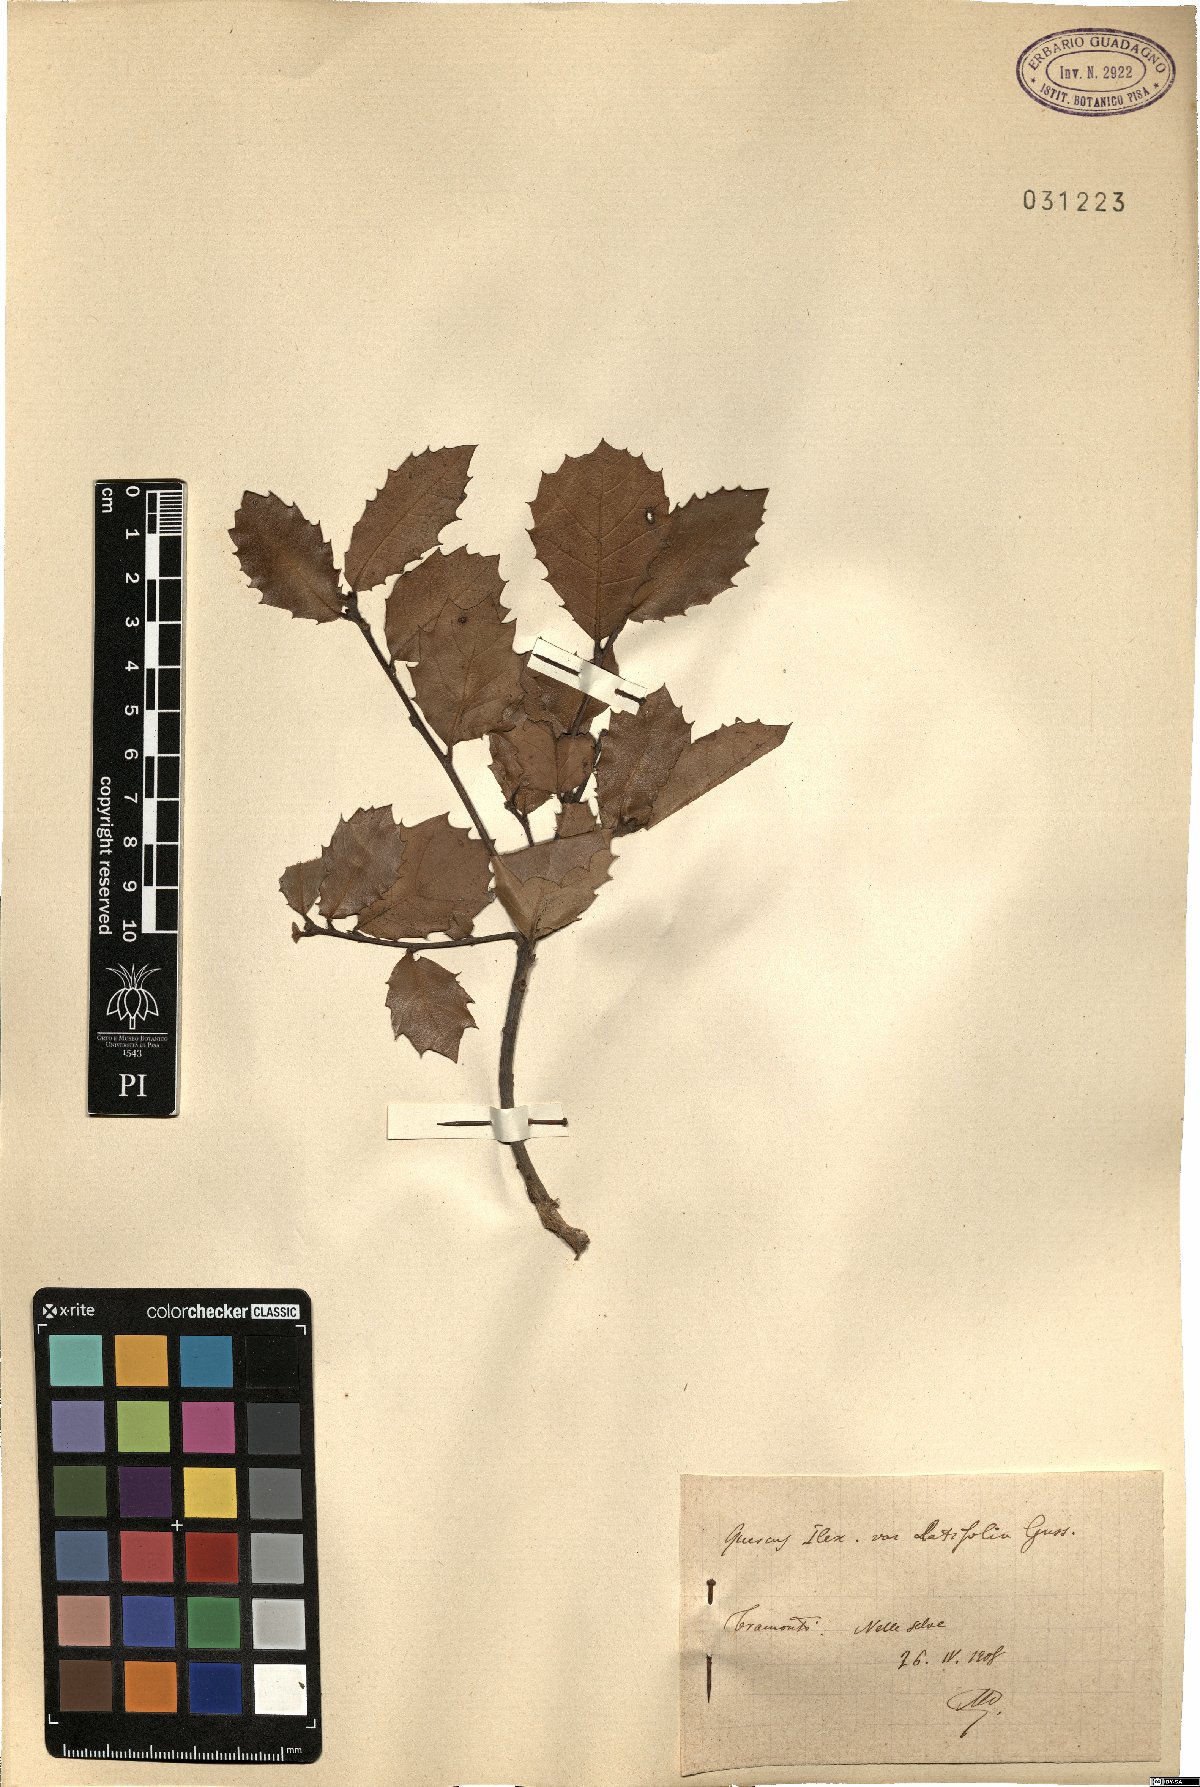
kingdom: Plantae
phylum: Tracheophyta
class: Magnoliopsida
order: Fagales
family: Fagaceae
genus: Quercus
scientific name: Quercus ilex
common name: Evergreen oak
